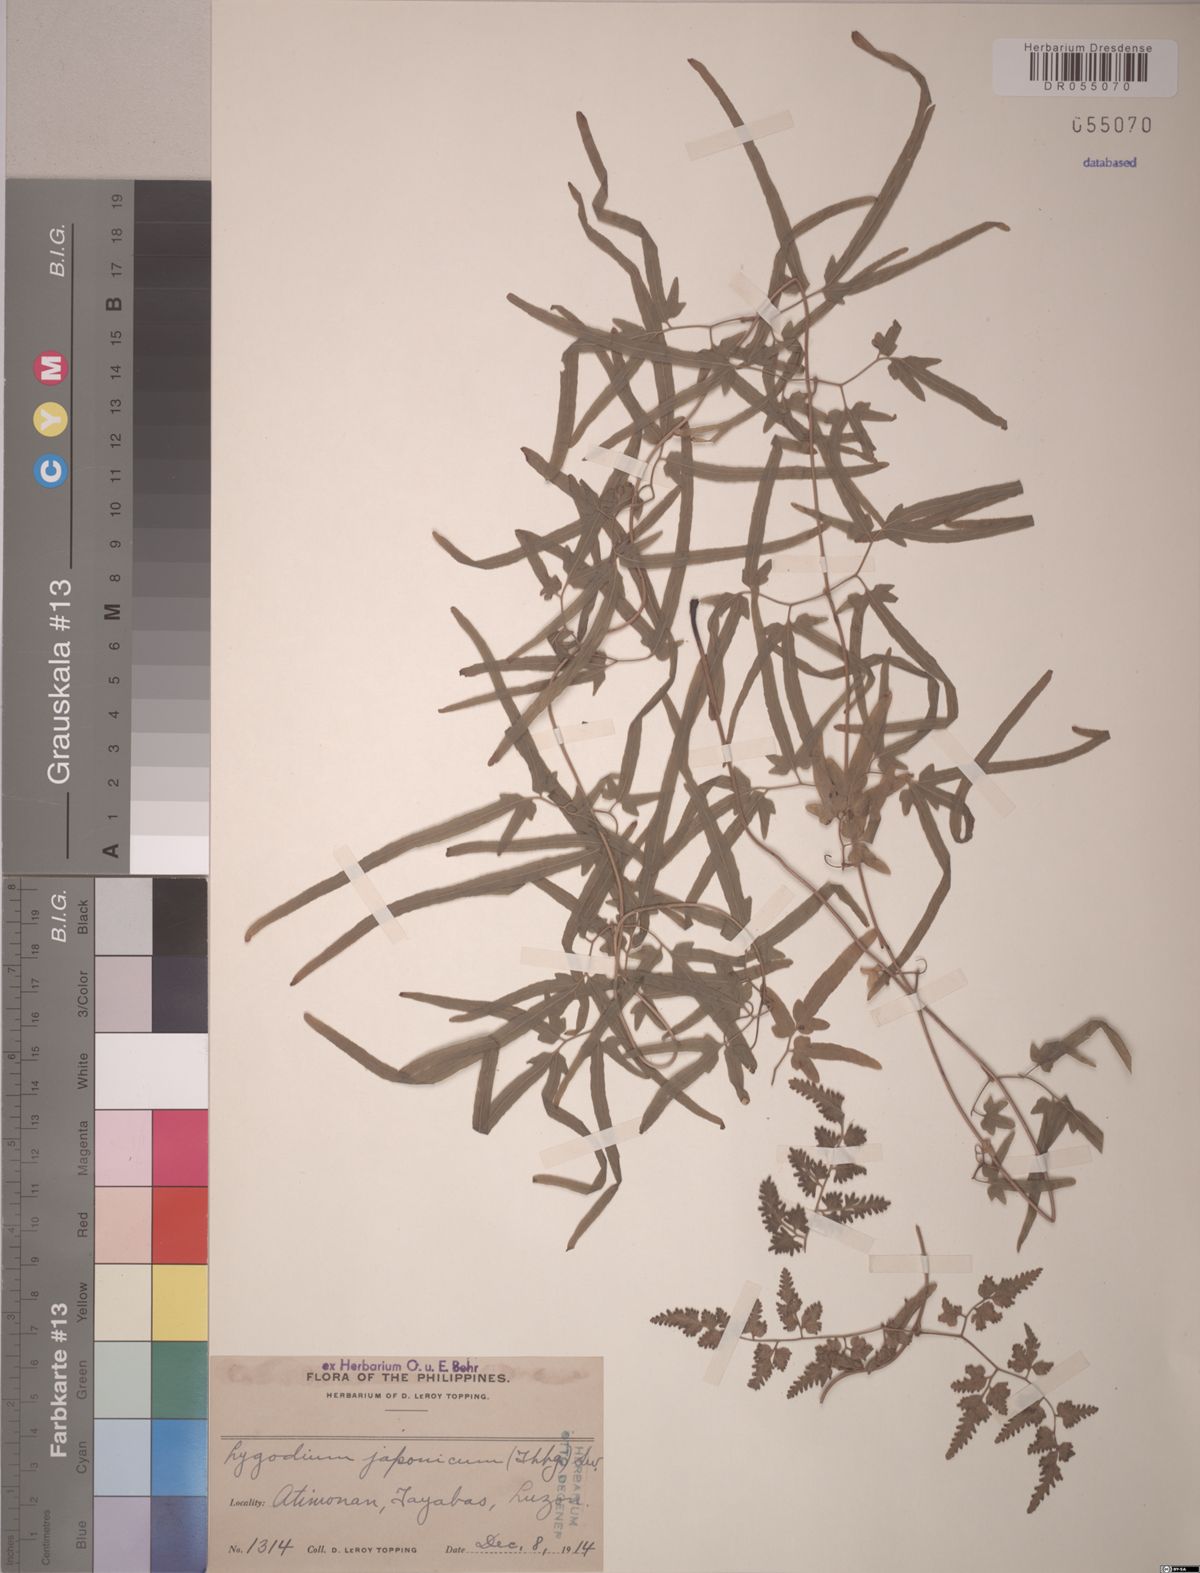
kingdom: Plantae
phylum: Tracheophyta
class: Polypodiopsida
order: Schizaeales
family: Lygodiaceae
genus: Lygodium
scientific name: Lygodium japonicum
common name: Japanese climbing fern
